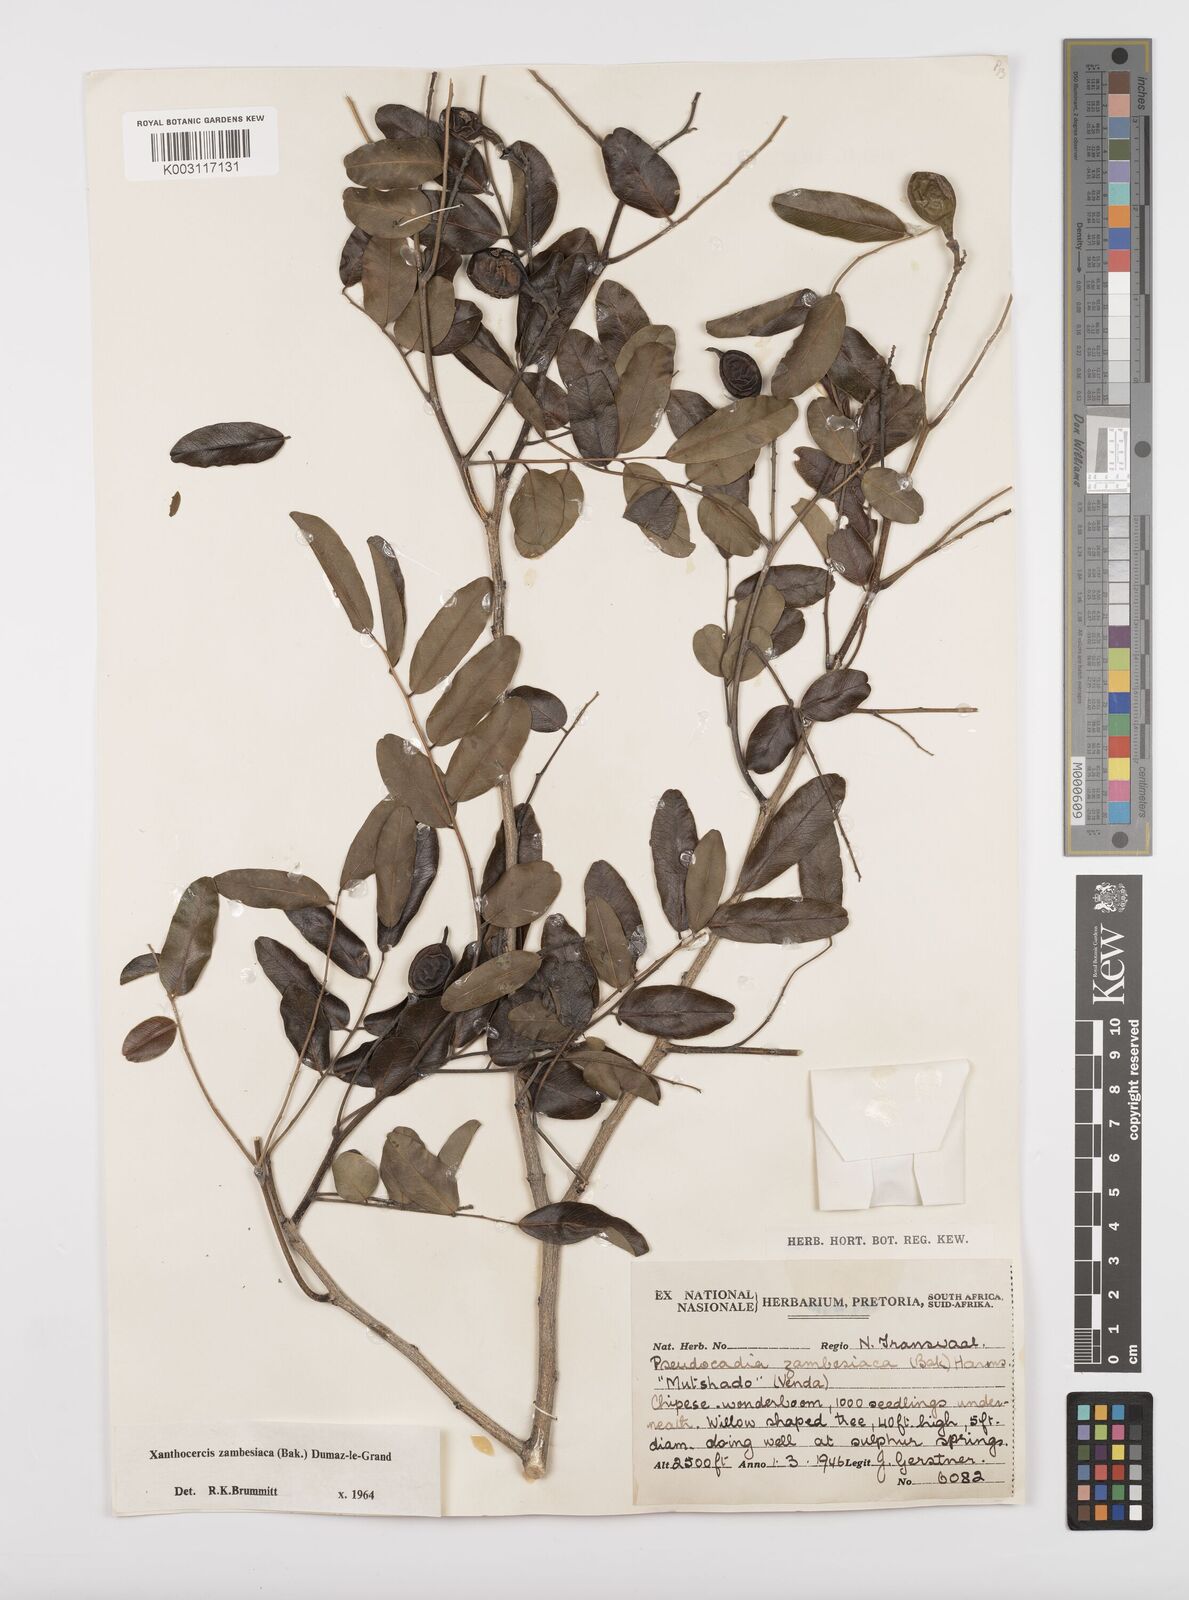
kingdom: Plantae
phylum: Tracheophyta
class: Magnoliopsida
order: Fabales
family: Fabaceae
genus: Xanthocercis
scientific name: Xanthocercis zambesiaca
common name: Nyala-tree
